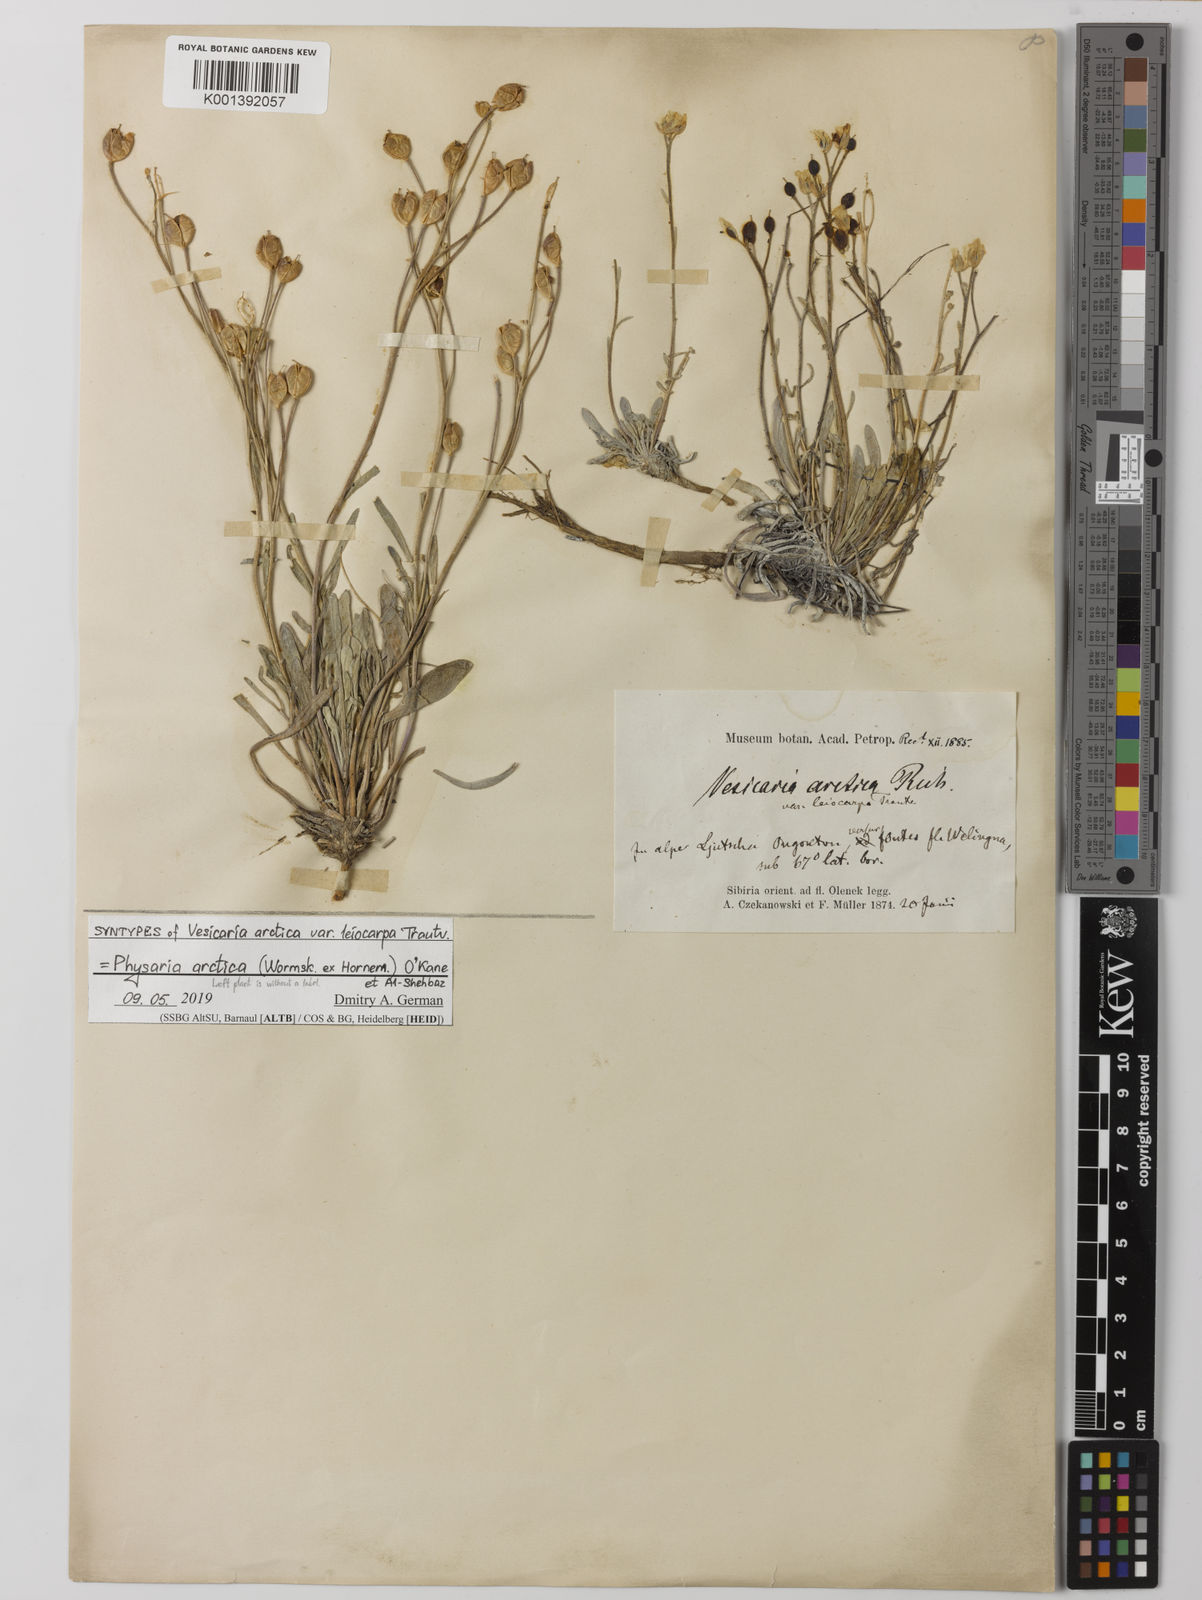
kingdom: Plantae
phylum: Tracheophyta
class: Magnoliopsida
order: Brassicales
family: Brassicaceae
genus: Physaria
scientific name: Physaria arctica
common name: Arctic bladderpod
